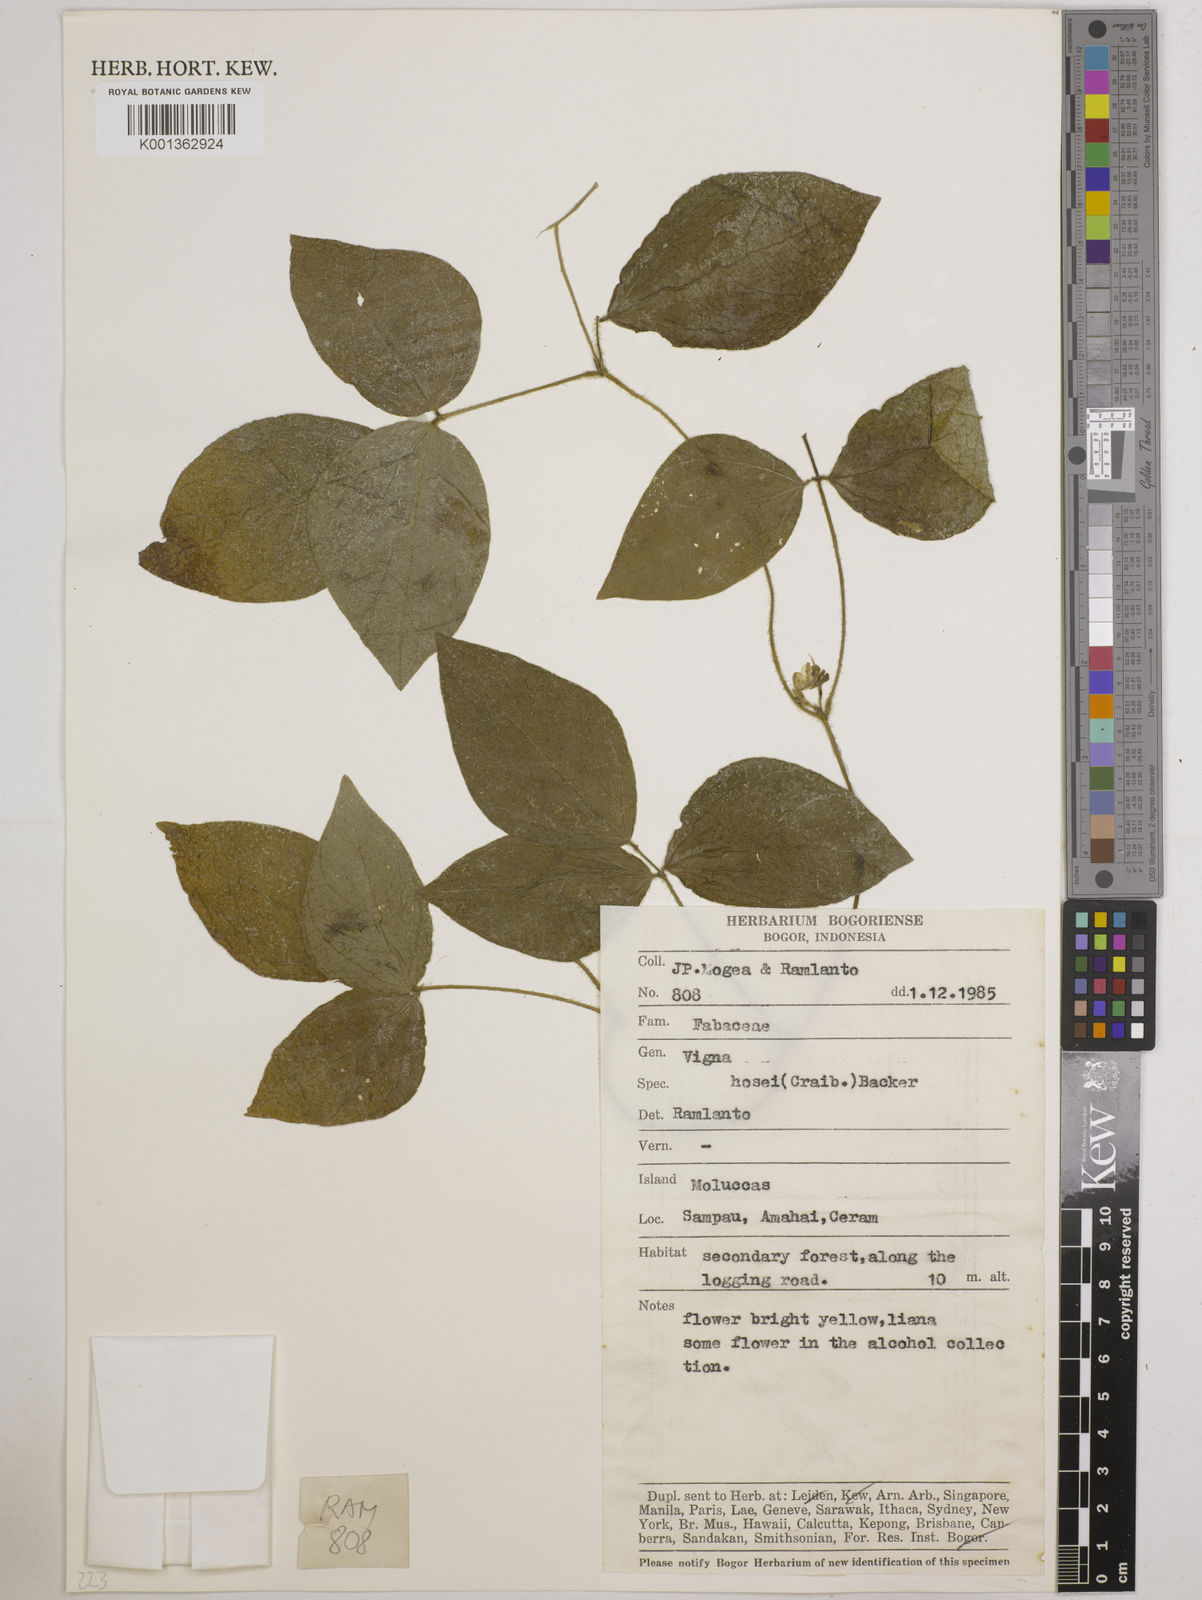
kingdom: Plantae
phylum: Tracheophyta
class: Magnoliopsida
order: Fabales
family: Fabaceae
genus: Vigna
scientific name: Vigna hosei
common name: Sarawak-bean
